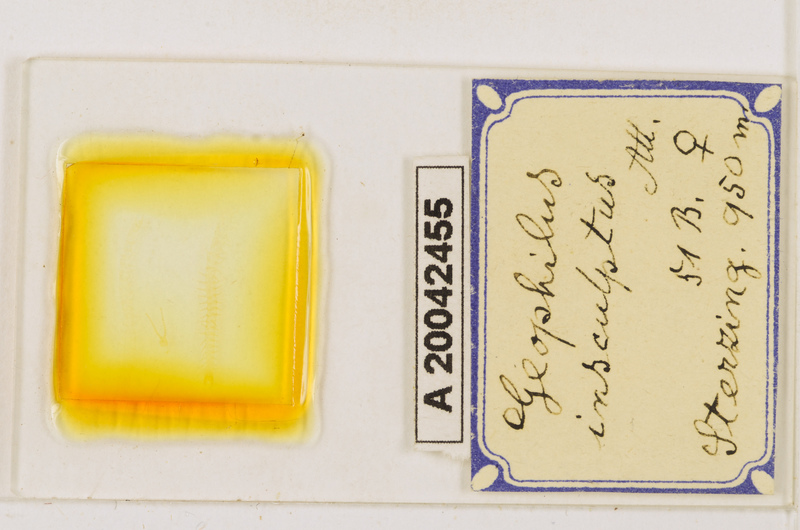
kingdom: Animalia
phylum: Arthropoda
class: Chilopoda
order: Geophilomorpha
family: Geophilidae
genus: Geophilus
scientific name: Geophilus insculptus
